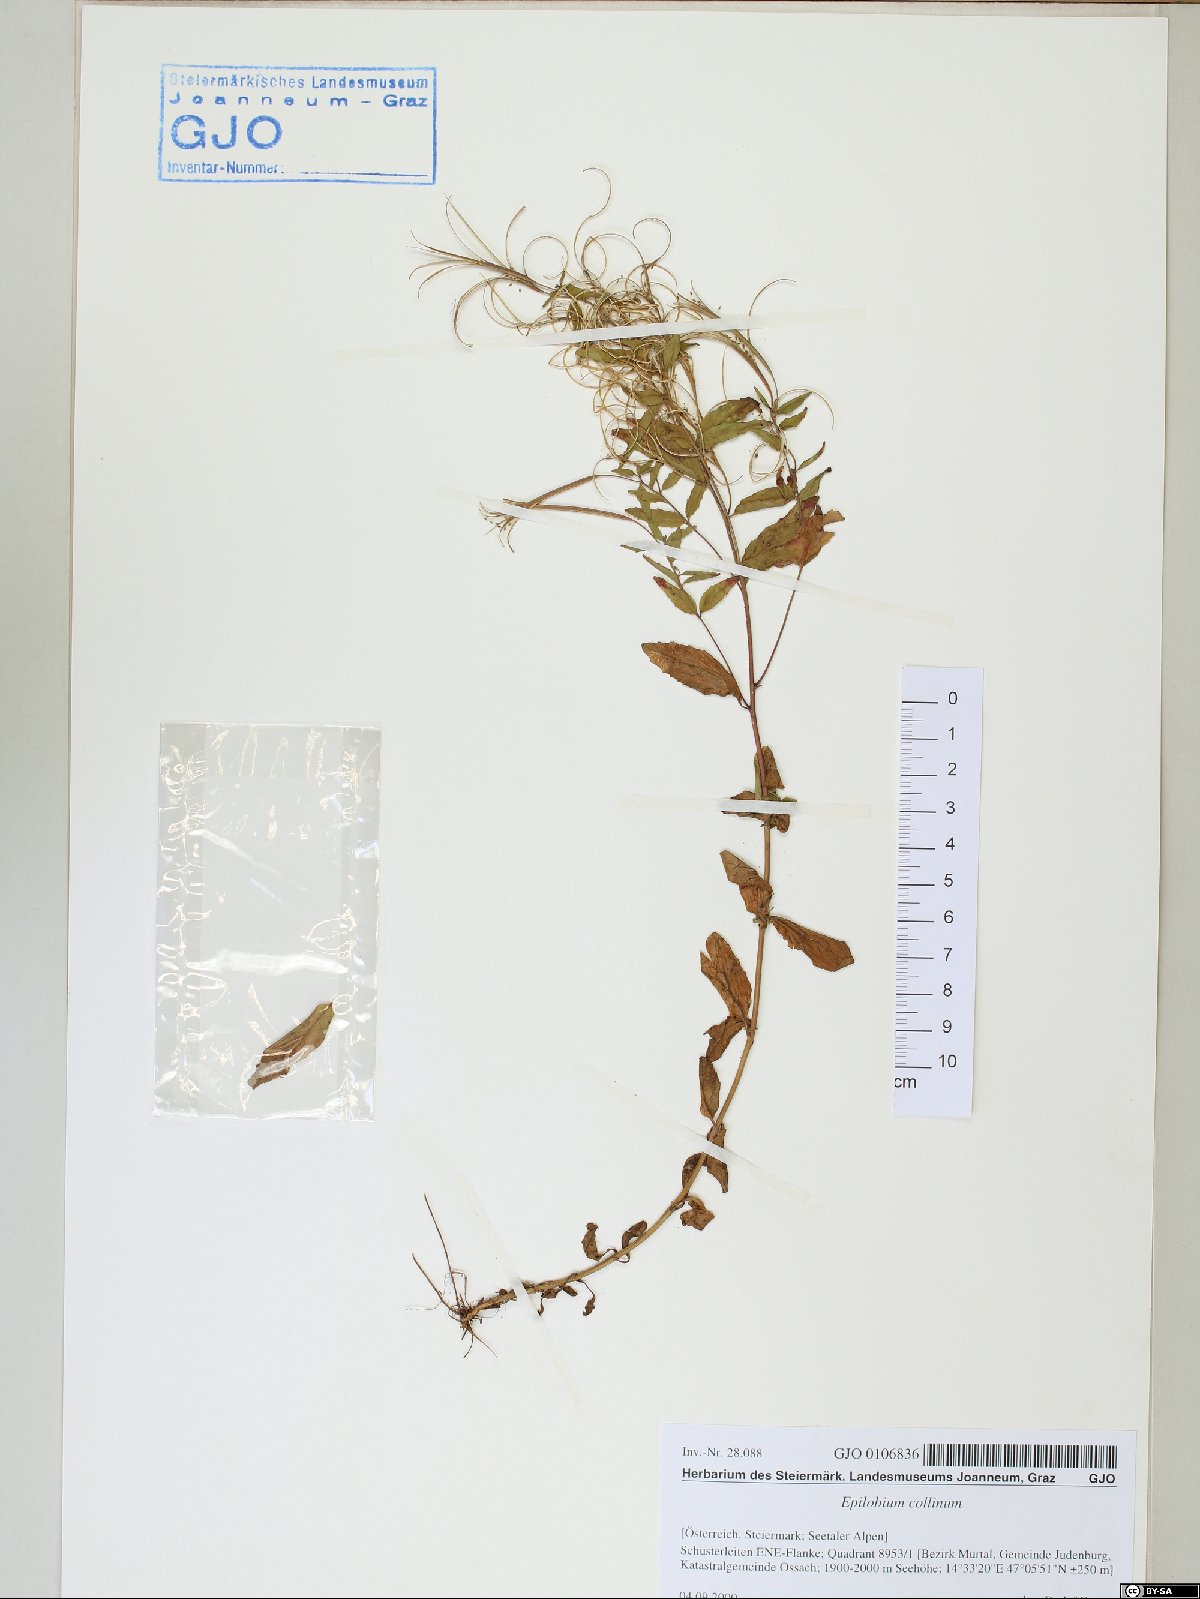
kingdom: Plantae
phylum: Tracheophyta
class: Magnoliopsida
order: Myrtales
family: Onagraceae
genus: Epilobium
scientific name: Epilobium collinum
